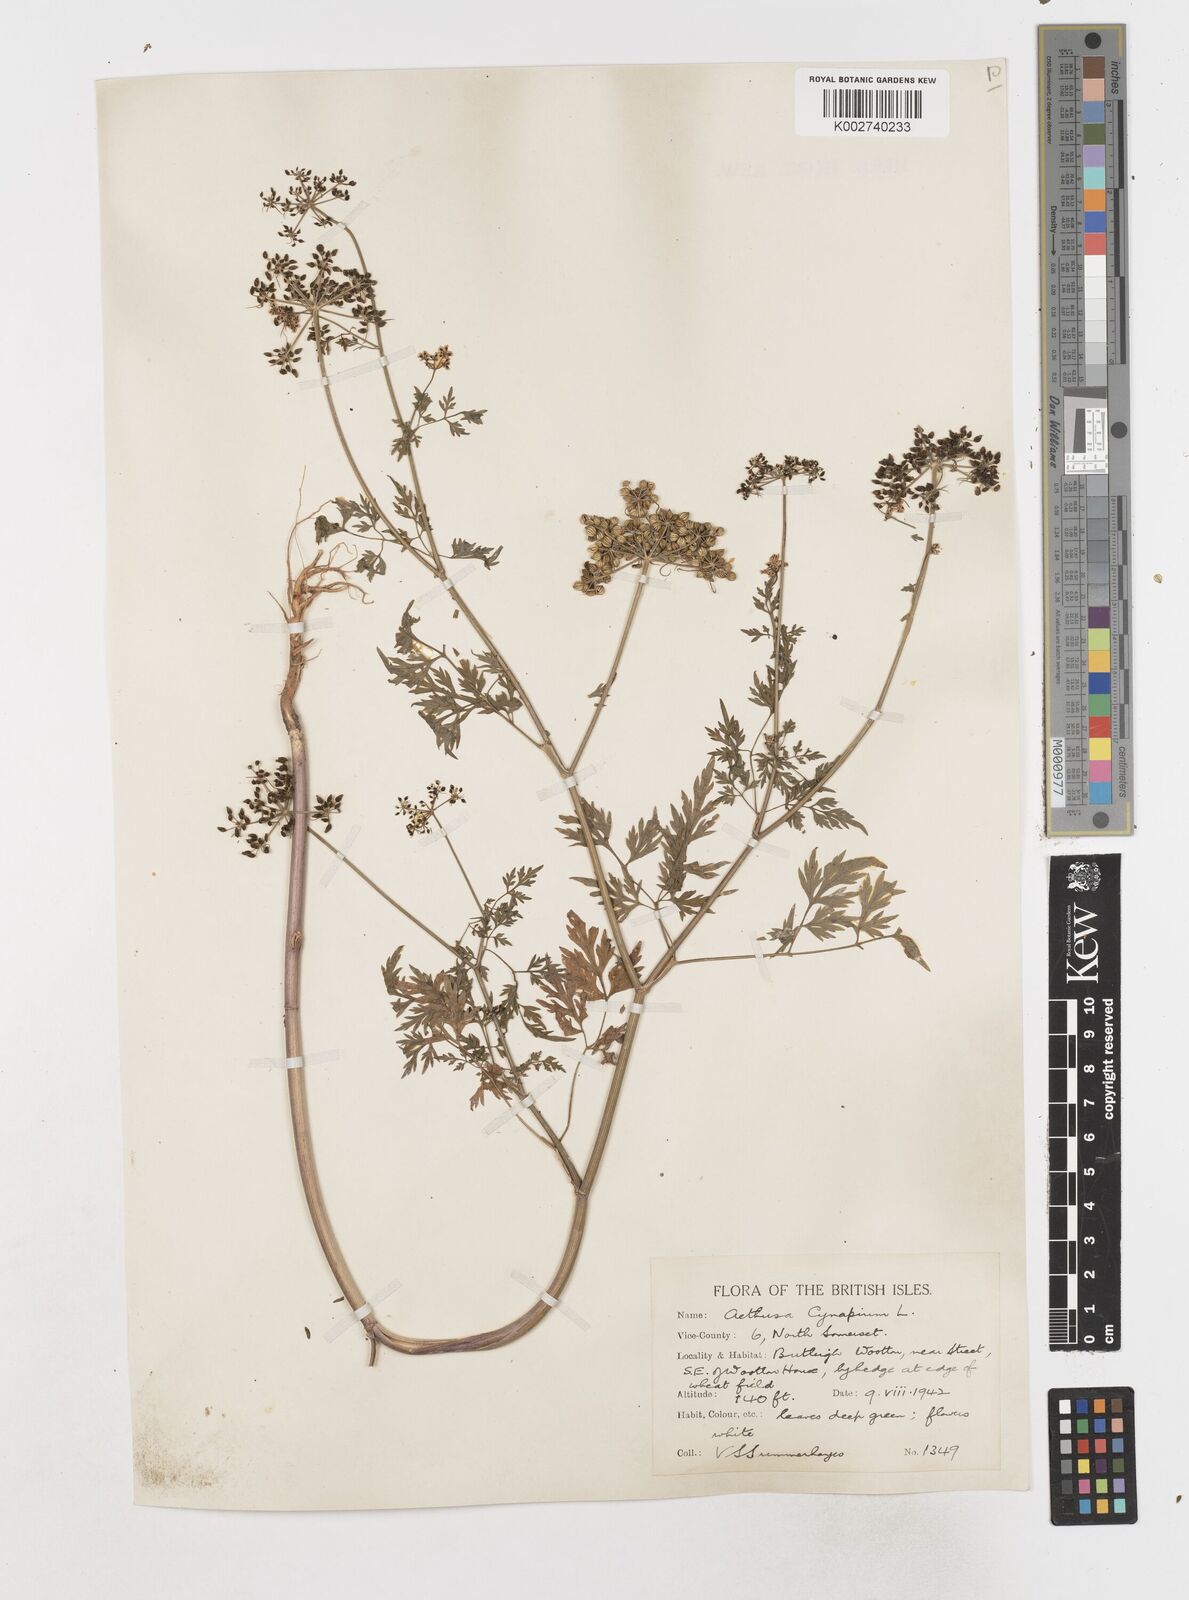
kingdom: Plantae
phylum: Tracheophyta
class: Magnoliopsida
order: Apiales
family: Apiaceae
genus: Aethusa
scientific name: Aethusa cynapium
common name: Fool's parsley
